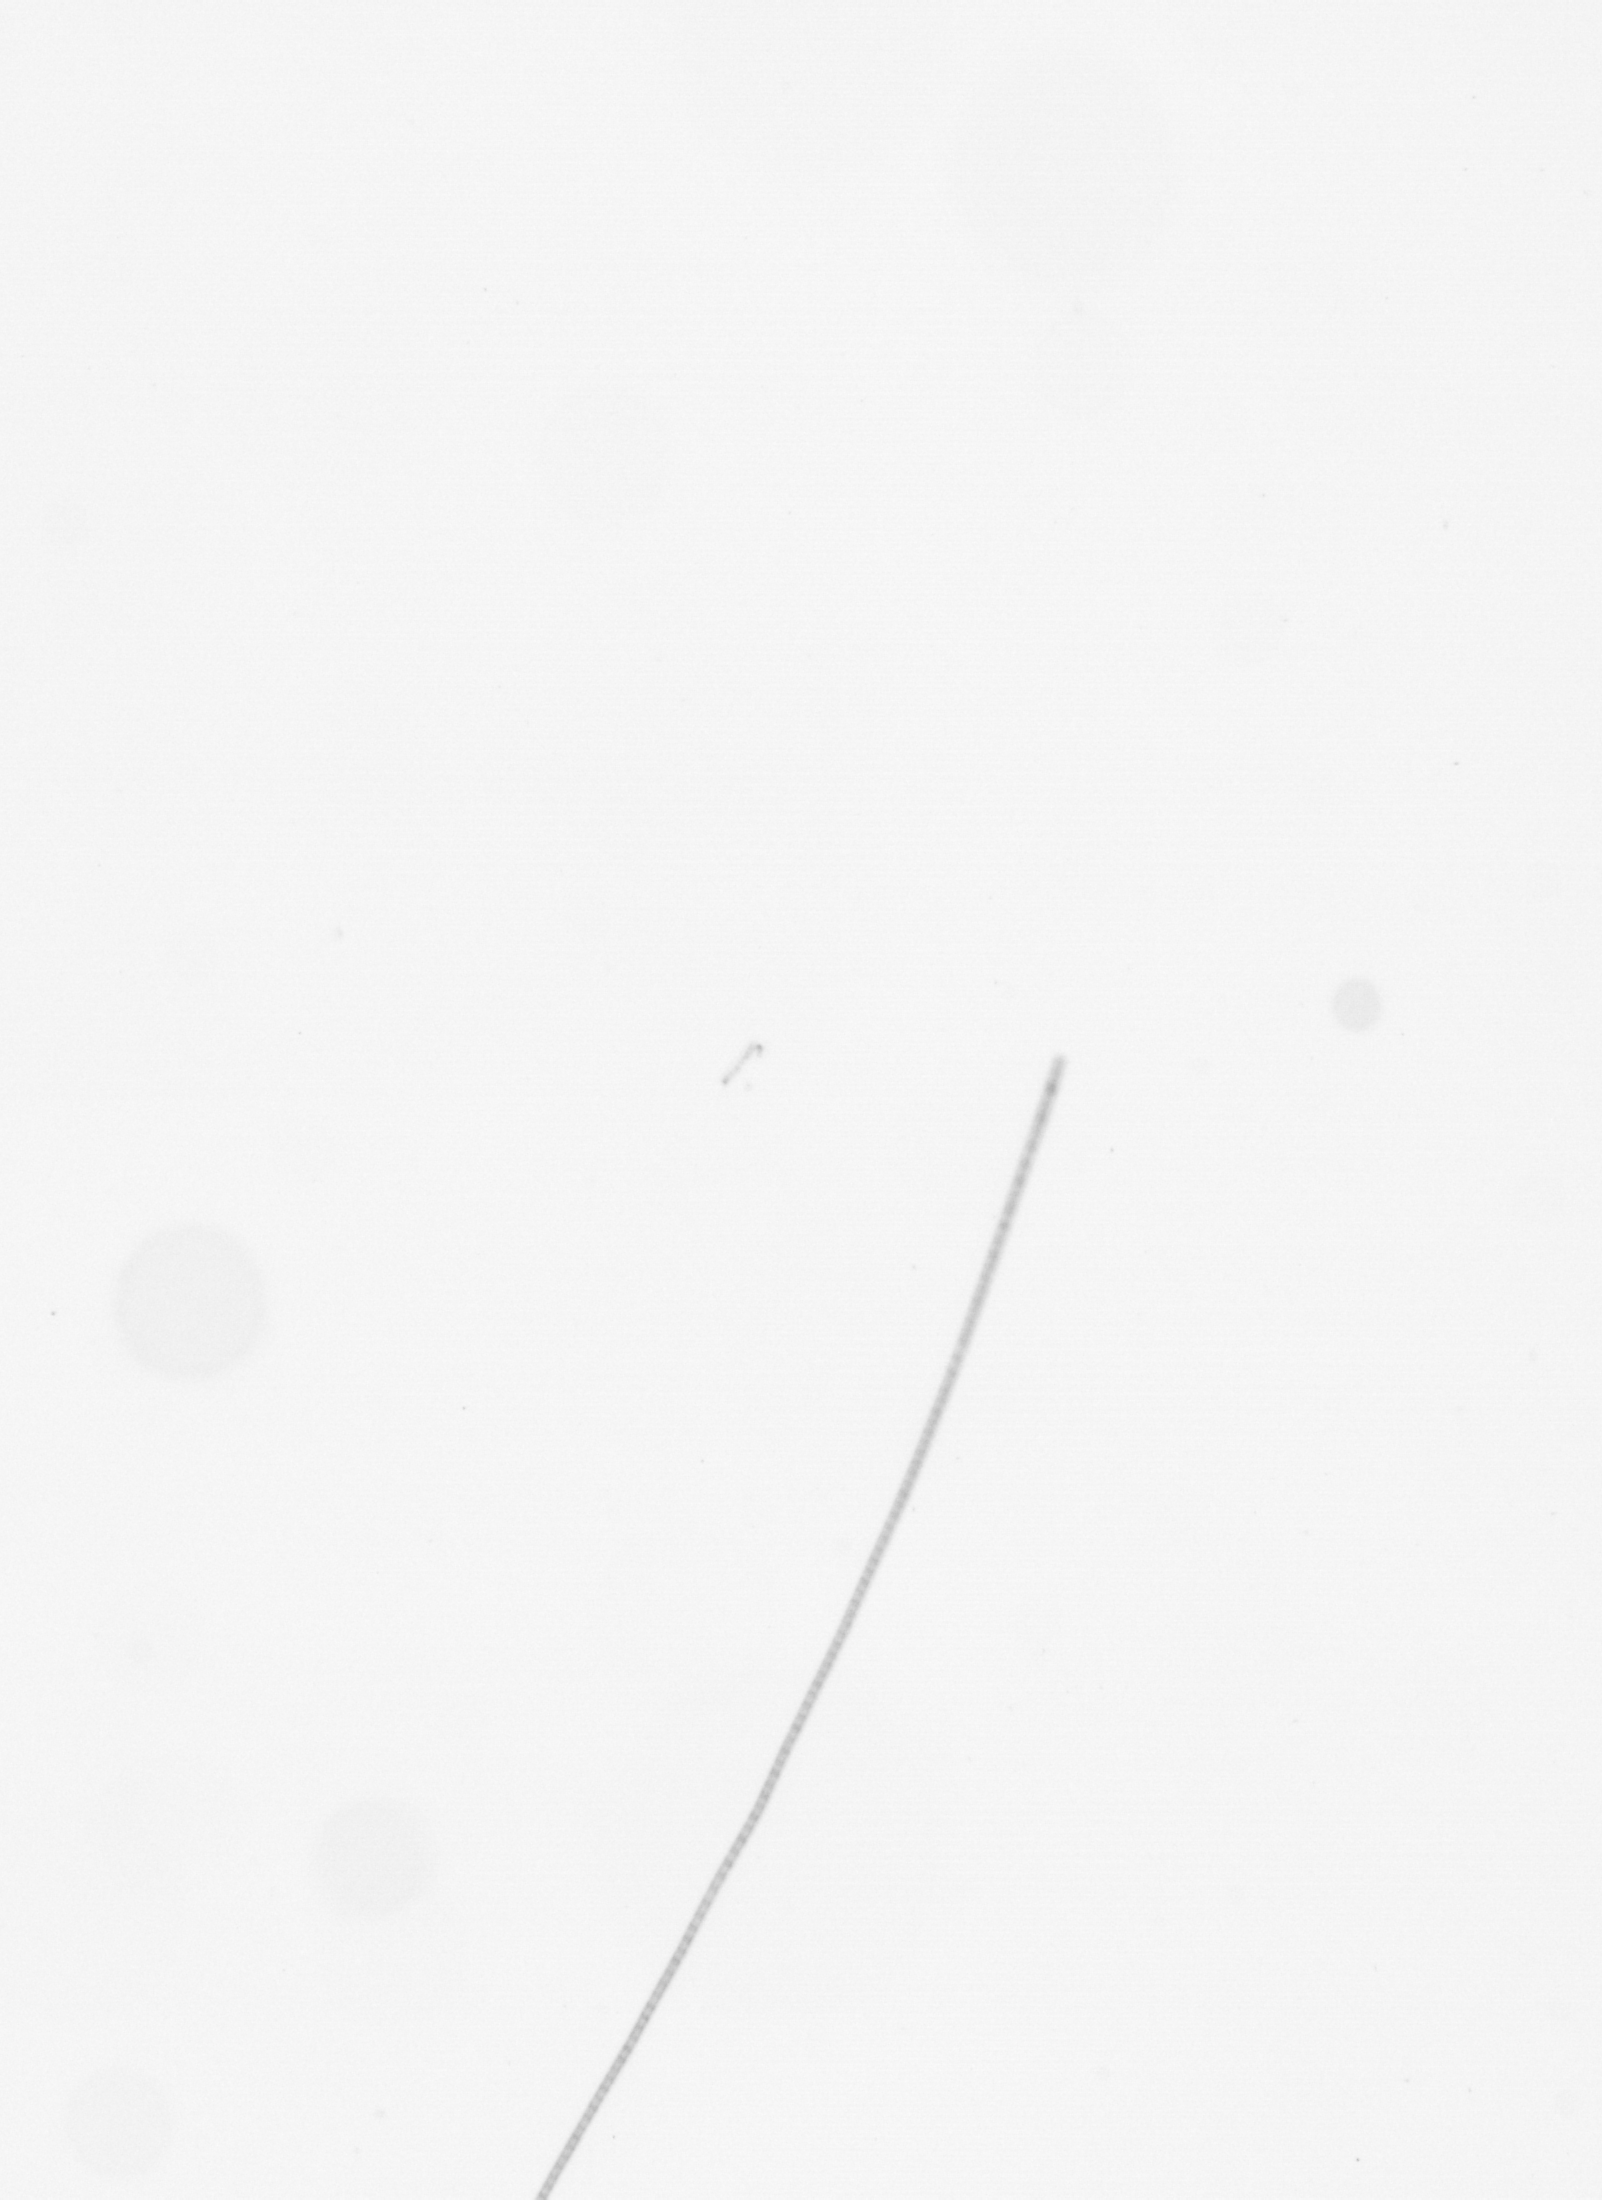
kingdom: Chromista
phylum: Ochrophyta
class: Bacillariophyceae
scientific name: Bacillariophyceae
